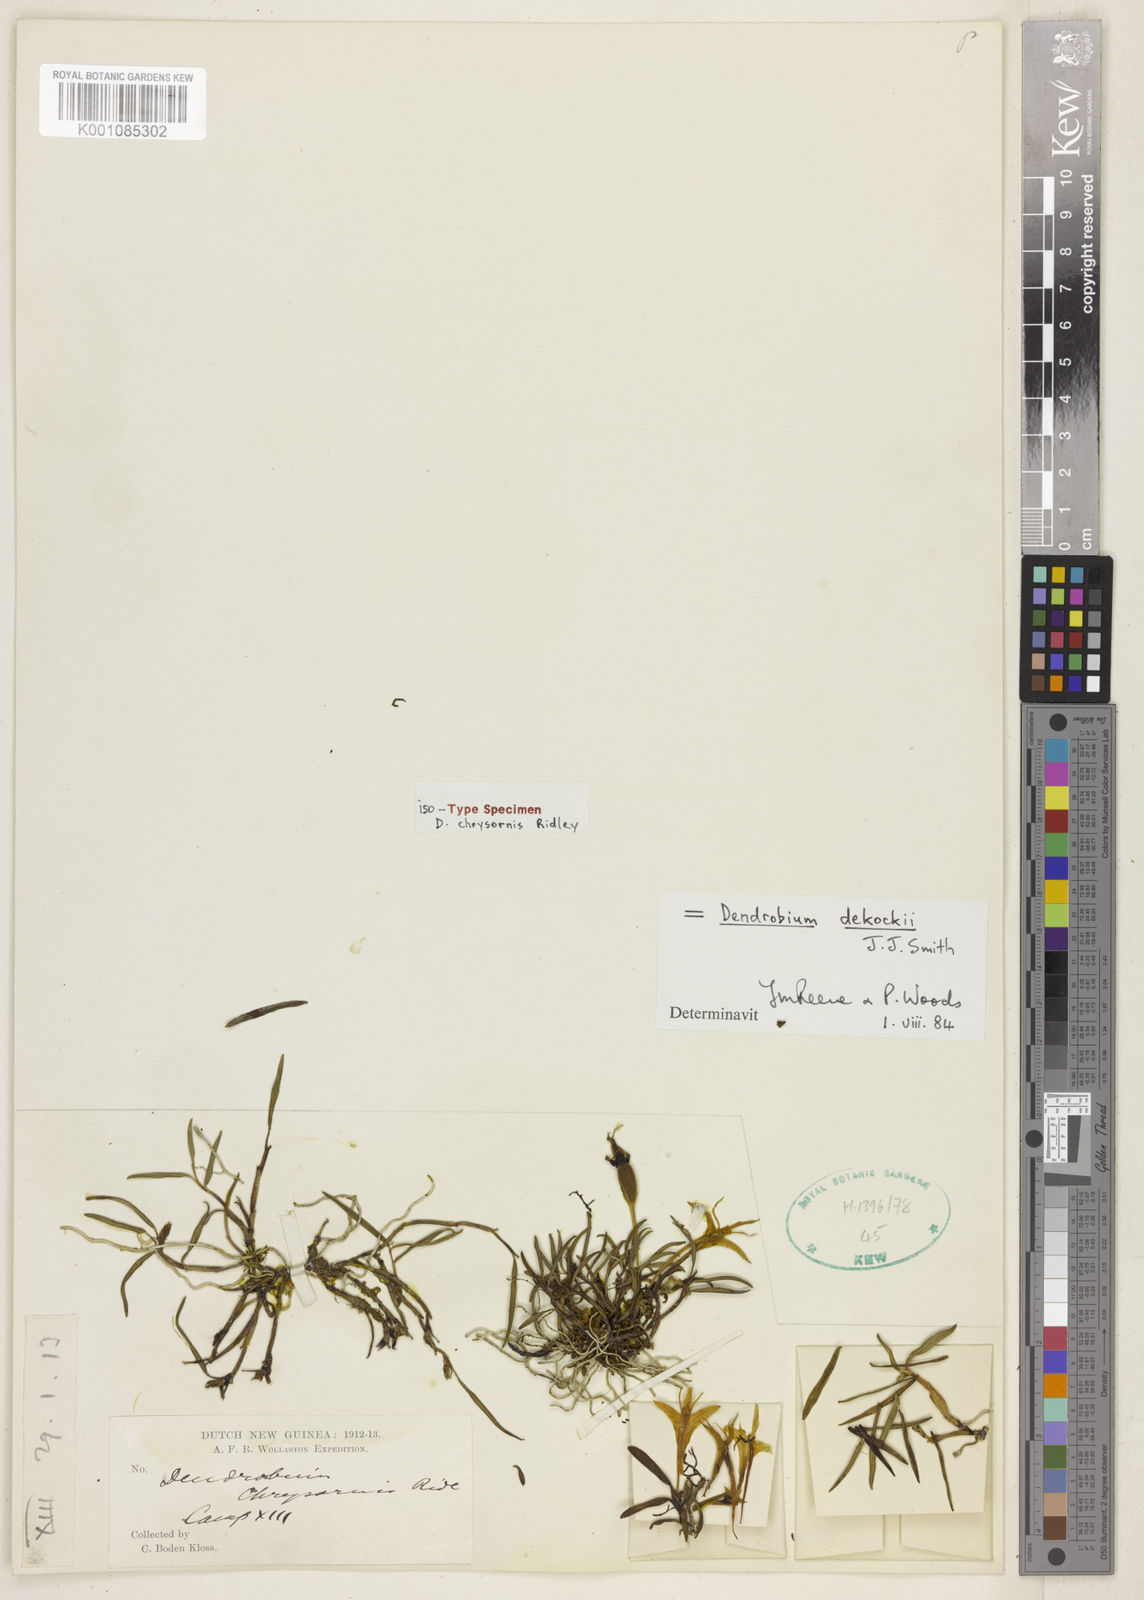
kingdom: Plantae
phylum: Tracheophyta
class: Liliopsida
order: Asparagales
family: Orchidaceae
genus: Dendrobium
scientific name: Dendrobium dekockii
